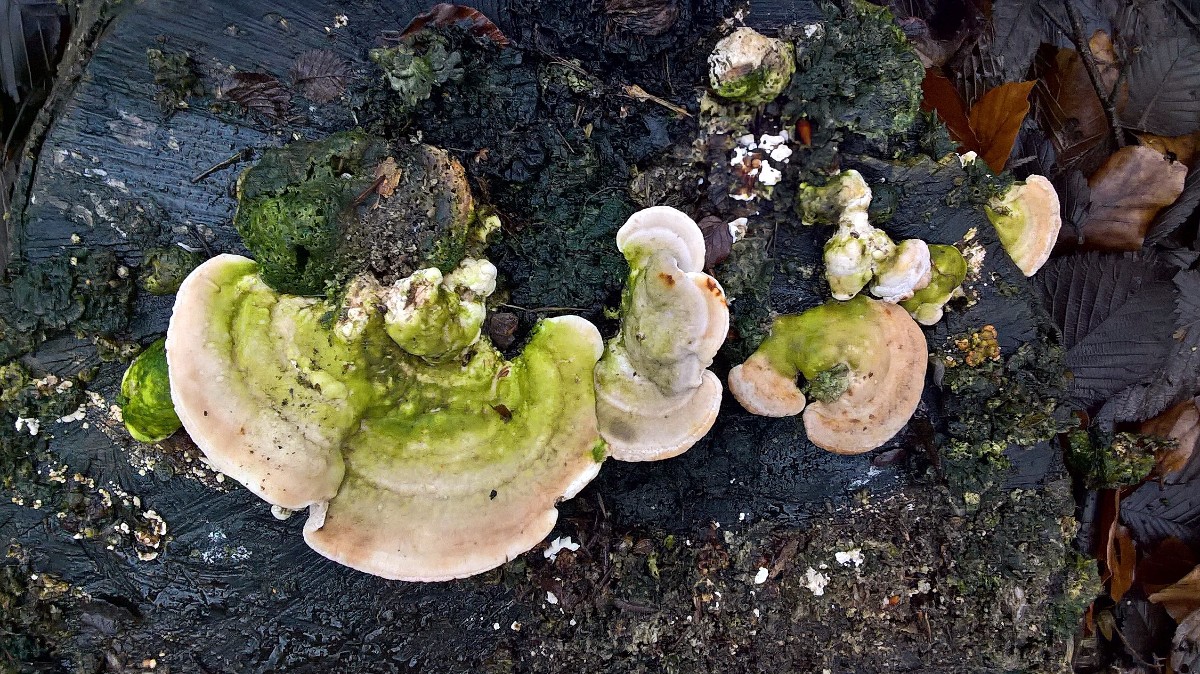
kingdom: Fungi
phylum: Basidiomycota
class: Agaricomycetes
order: Polyporales
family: Polyporaceae
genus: Trametes
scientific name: Trametes gibbosa
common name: puklet læderporesvamp
